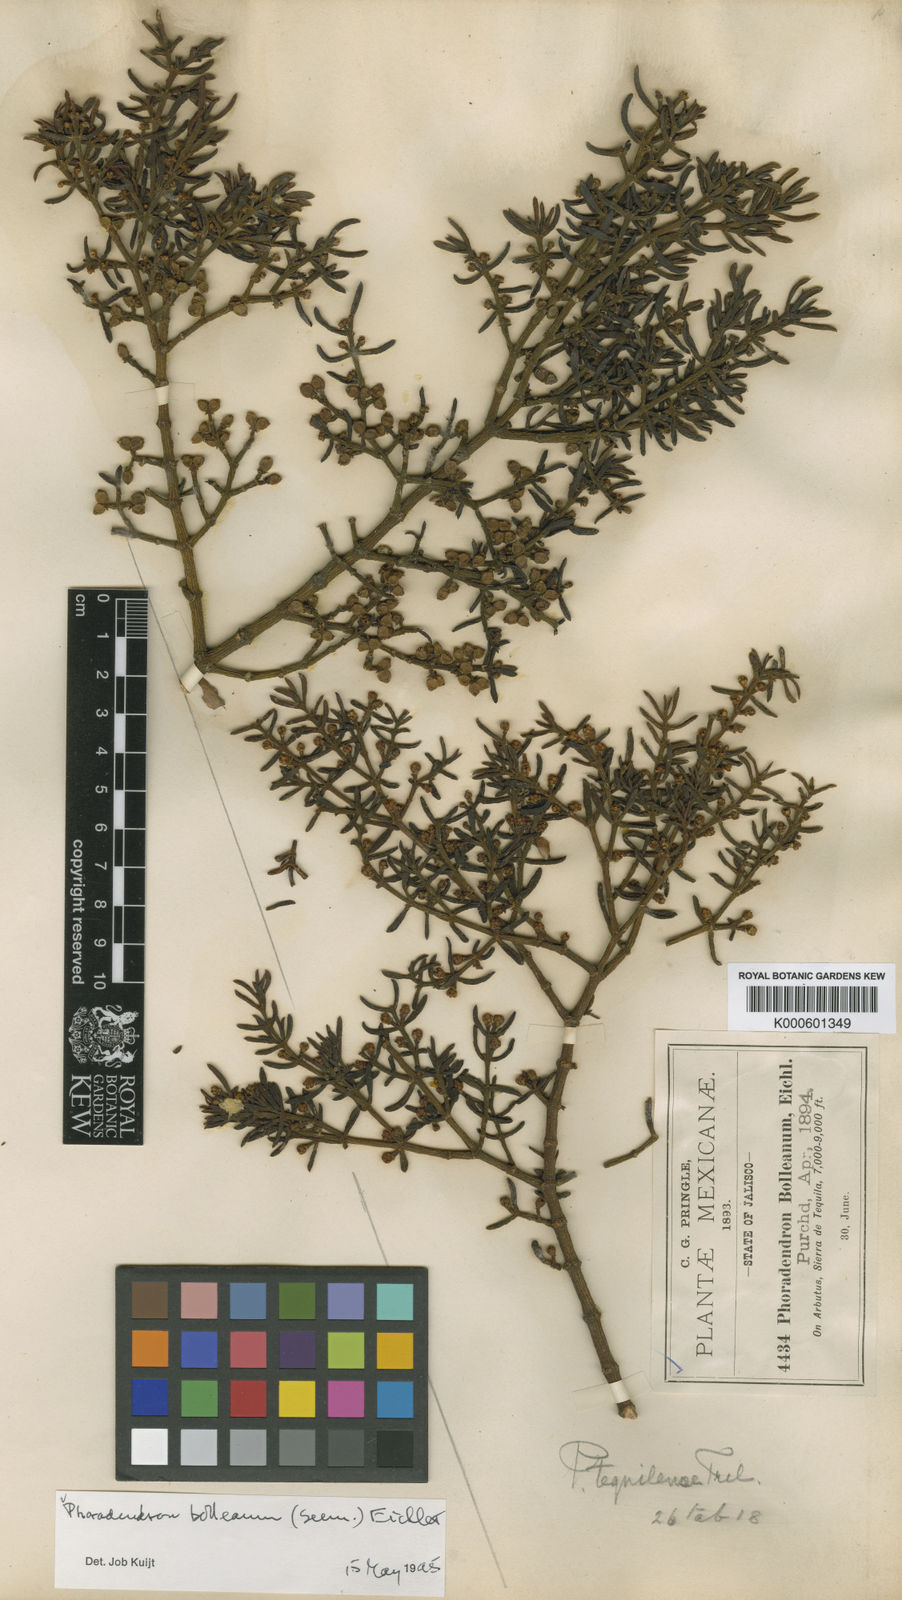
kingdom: Plantae
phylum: Tracheophyta
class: Magnoliopsida
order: Santalales
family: Viscaceae
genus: Phoradendron
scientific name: Phoradendron bolleanum
